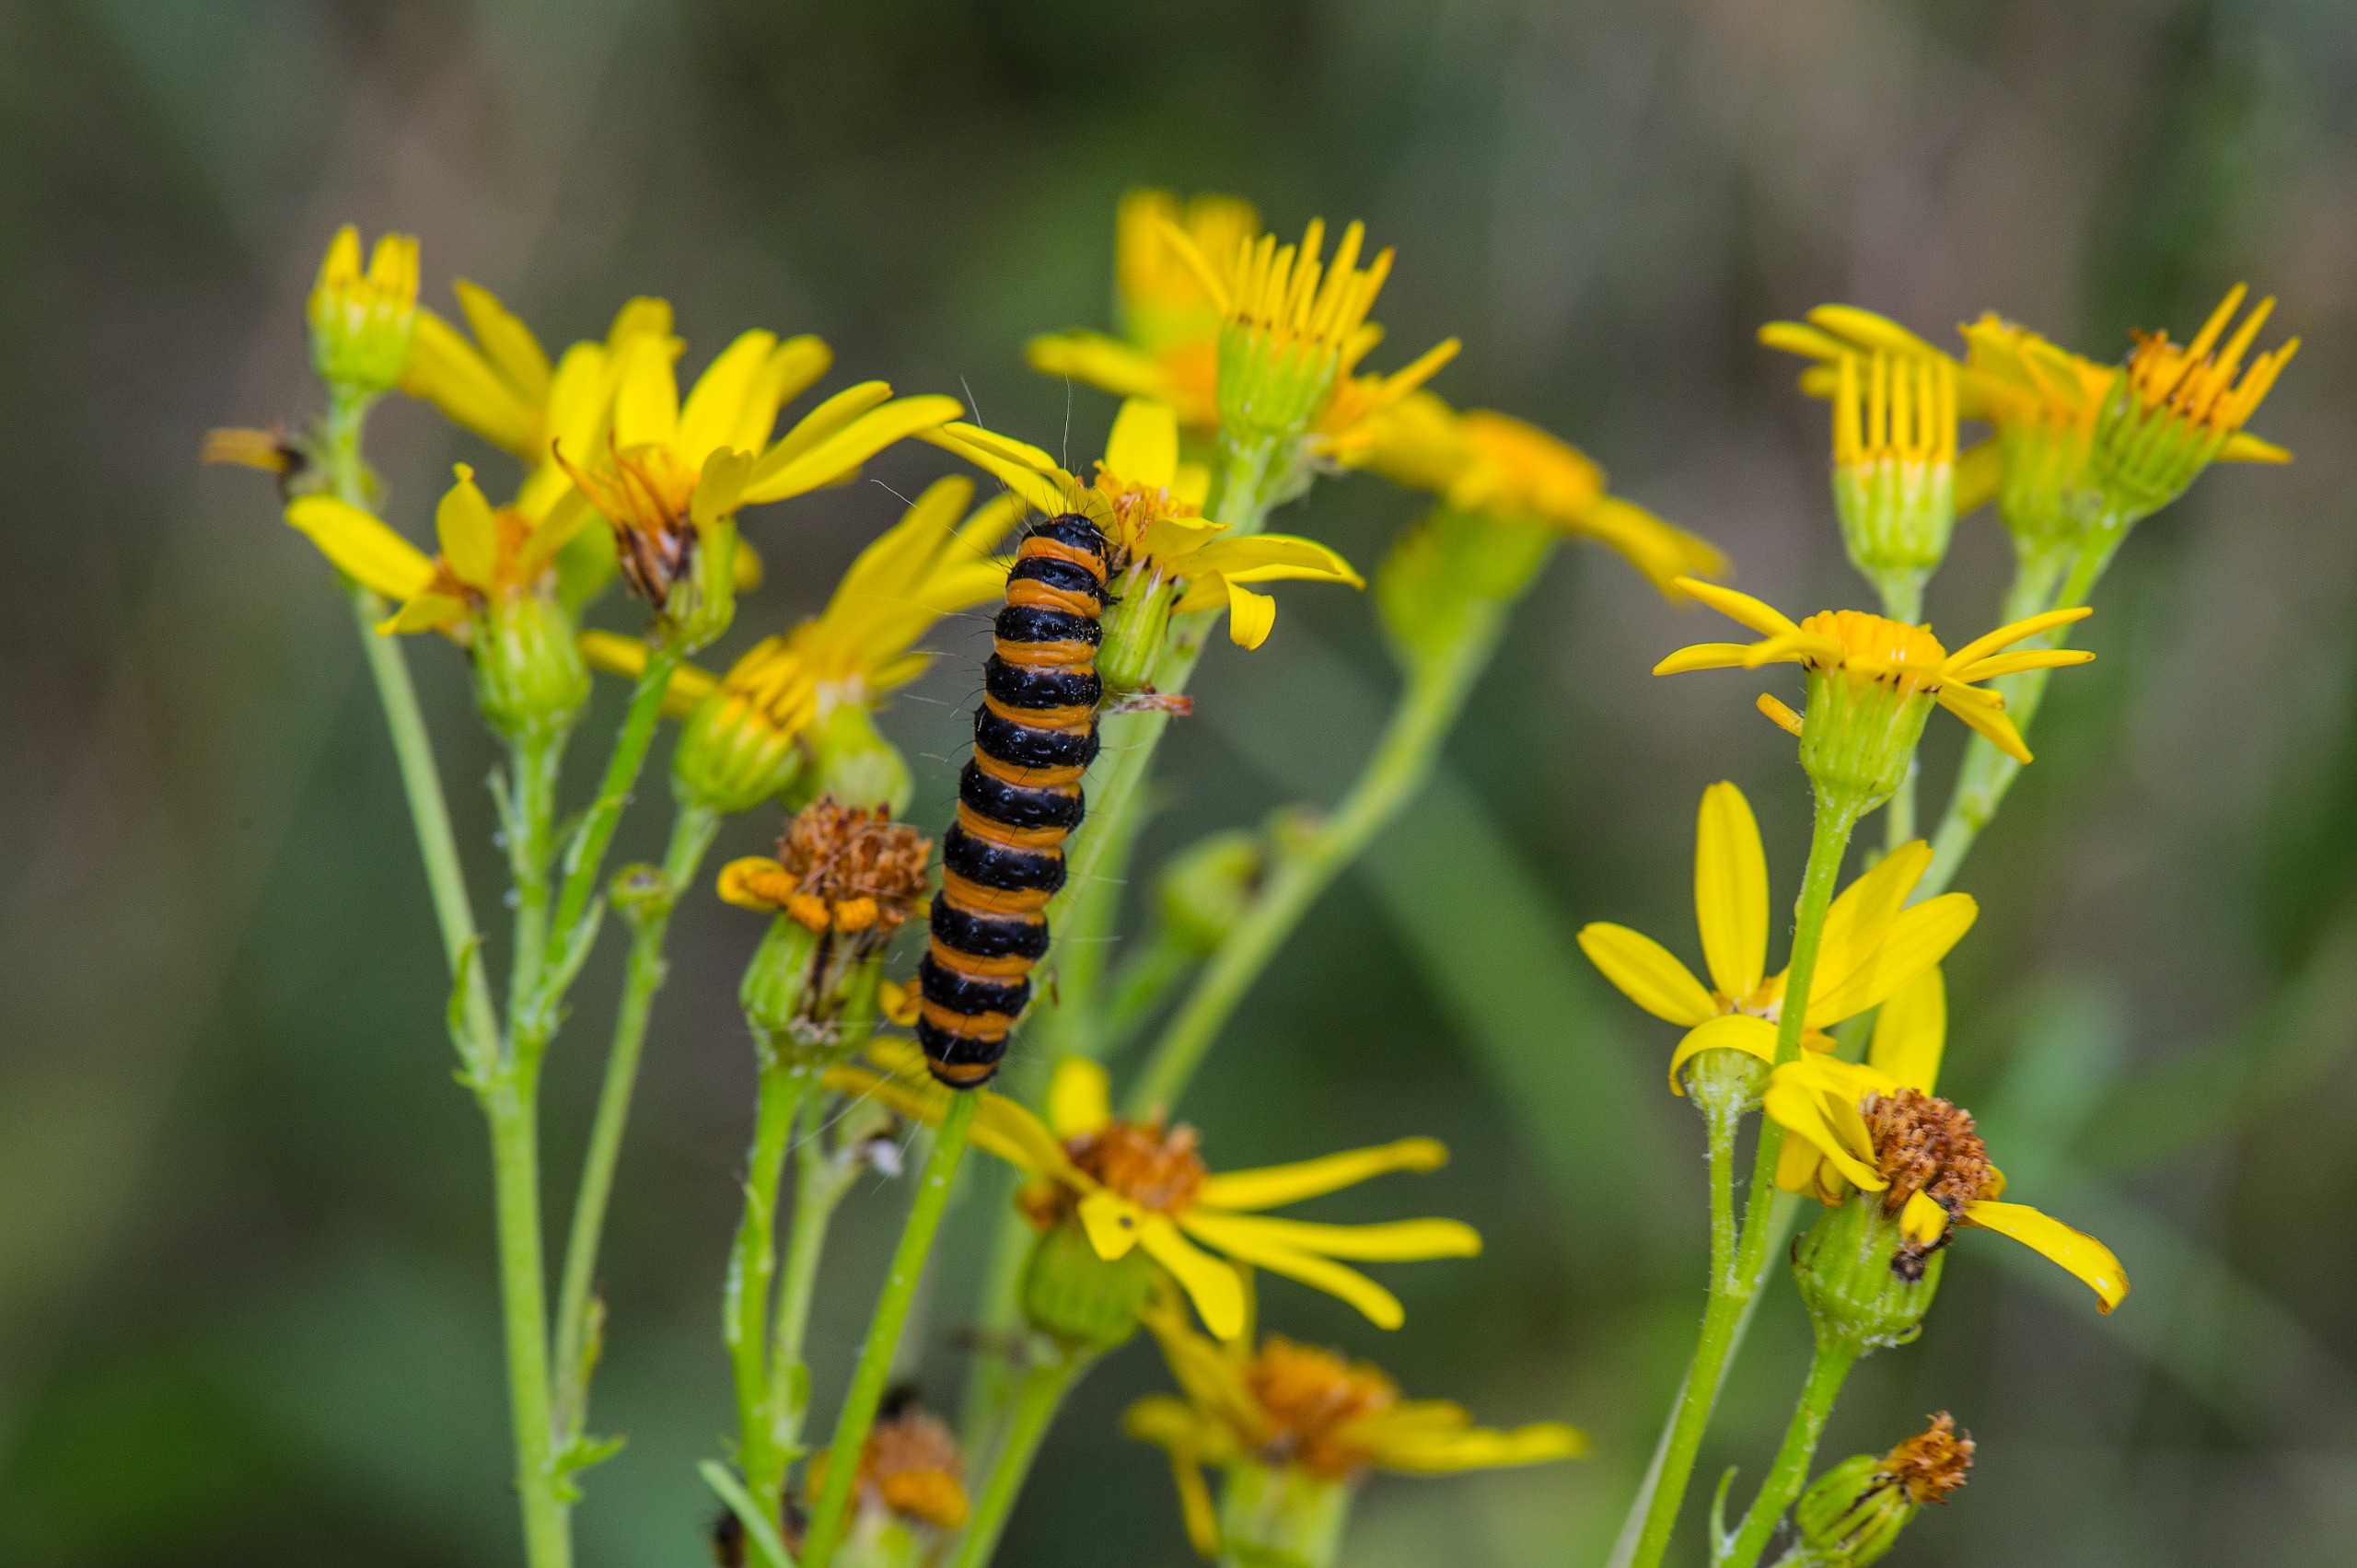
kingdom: Animalia
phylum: Arthropoda
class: Insecta
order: Lepidoptera
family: Erebidae
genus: Tyria
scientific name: Tyria jacobaeae
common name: Blodplet
